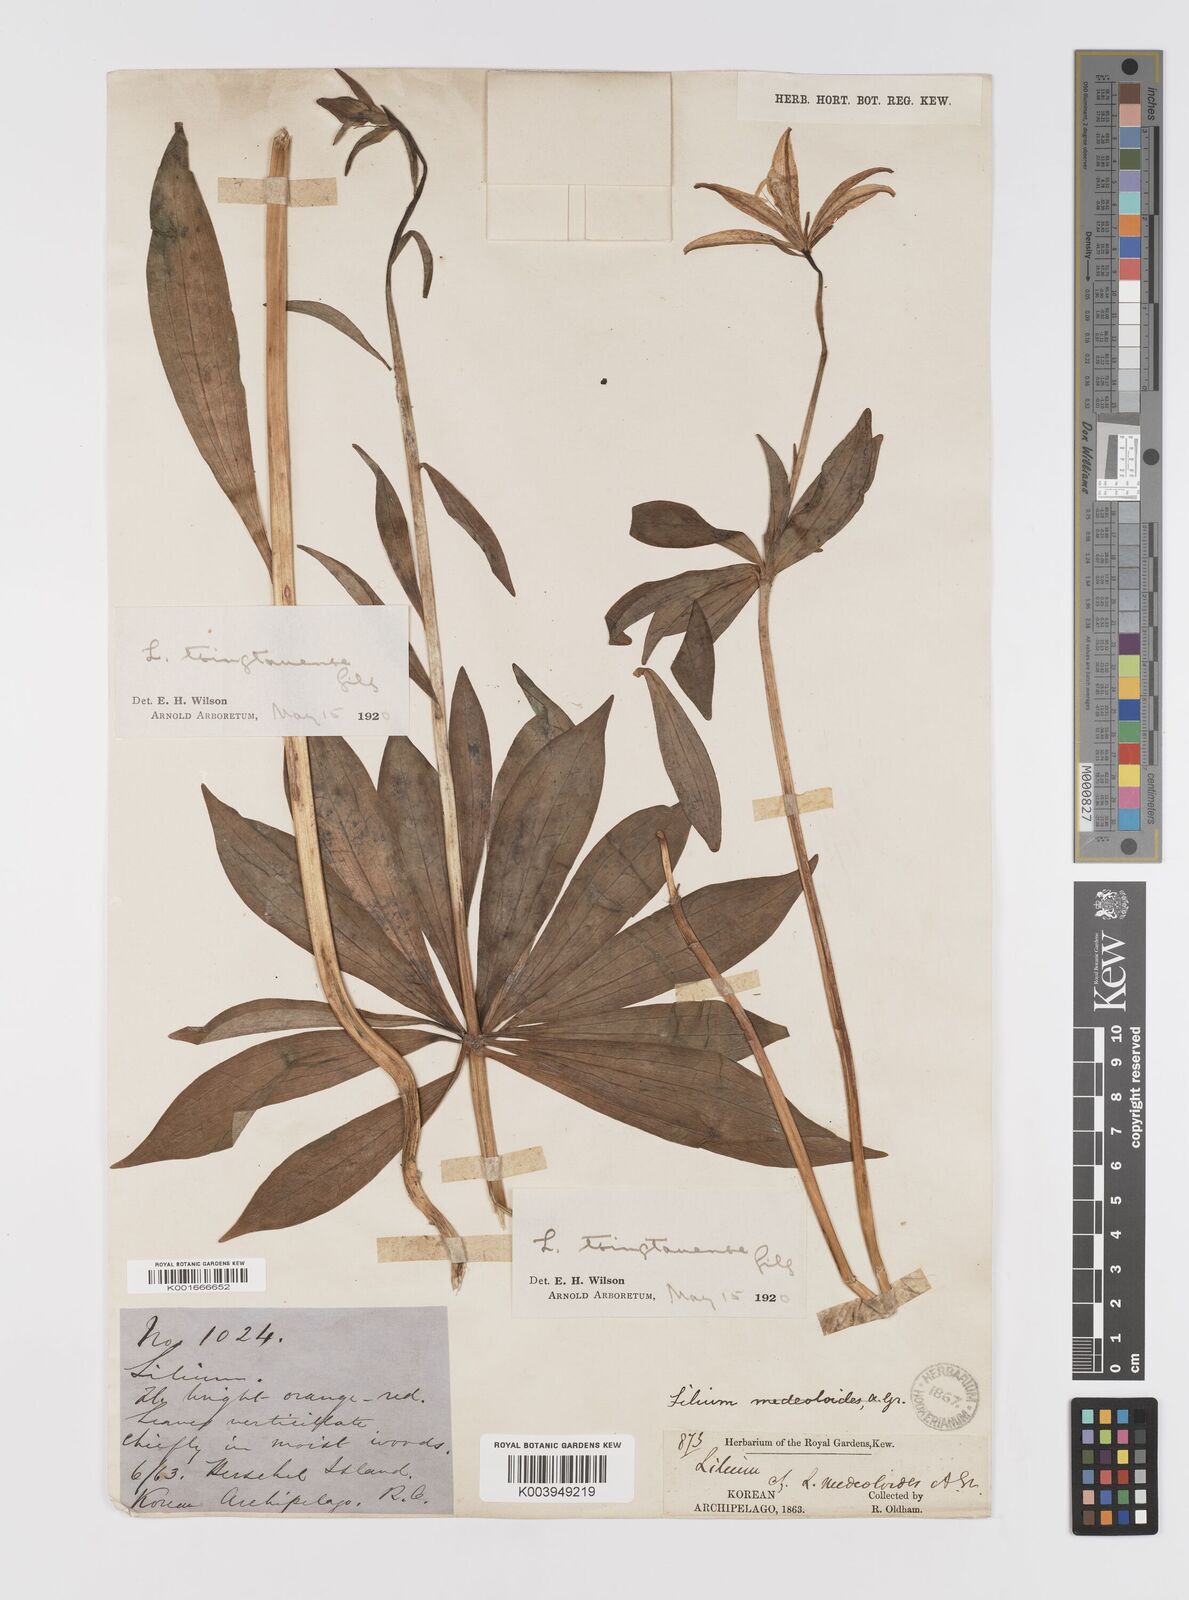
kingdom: Plantae
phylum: Tracheophyta
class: Liliopsida
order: Liliales
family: Liliaceae
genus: Lilium
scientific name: Lilium tsingtauense
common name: Korean wheel lily
